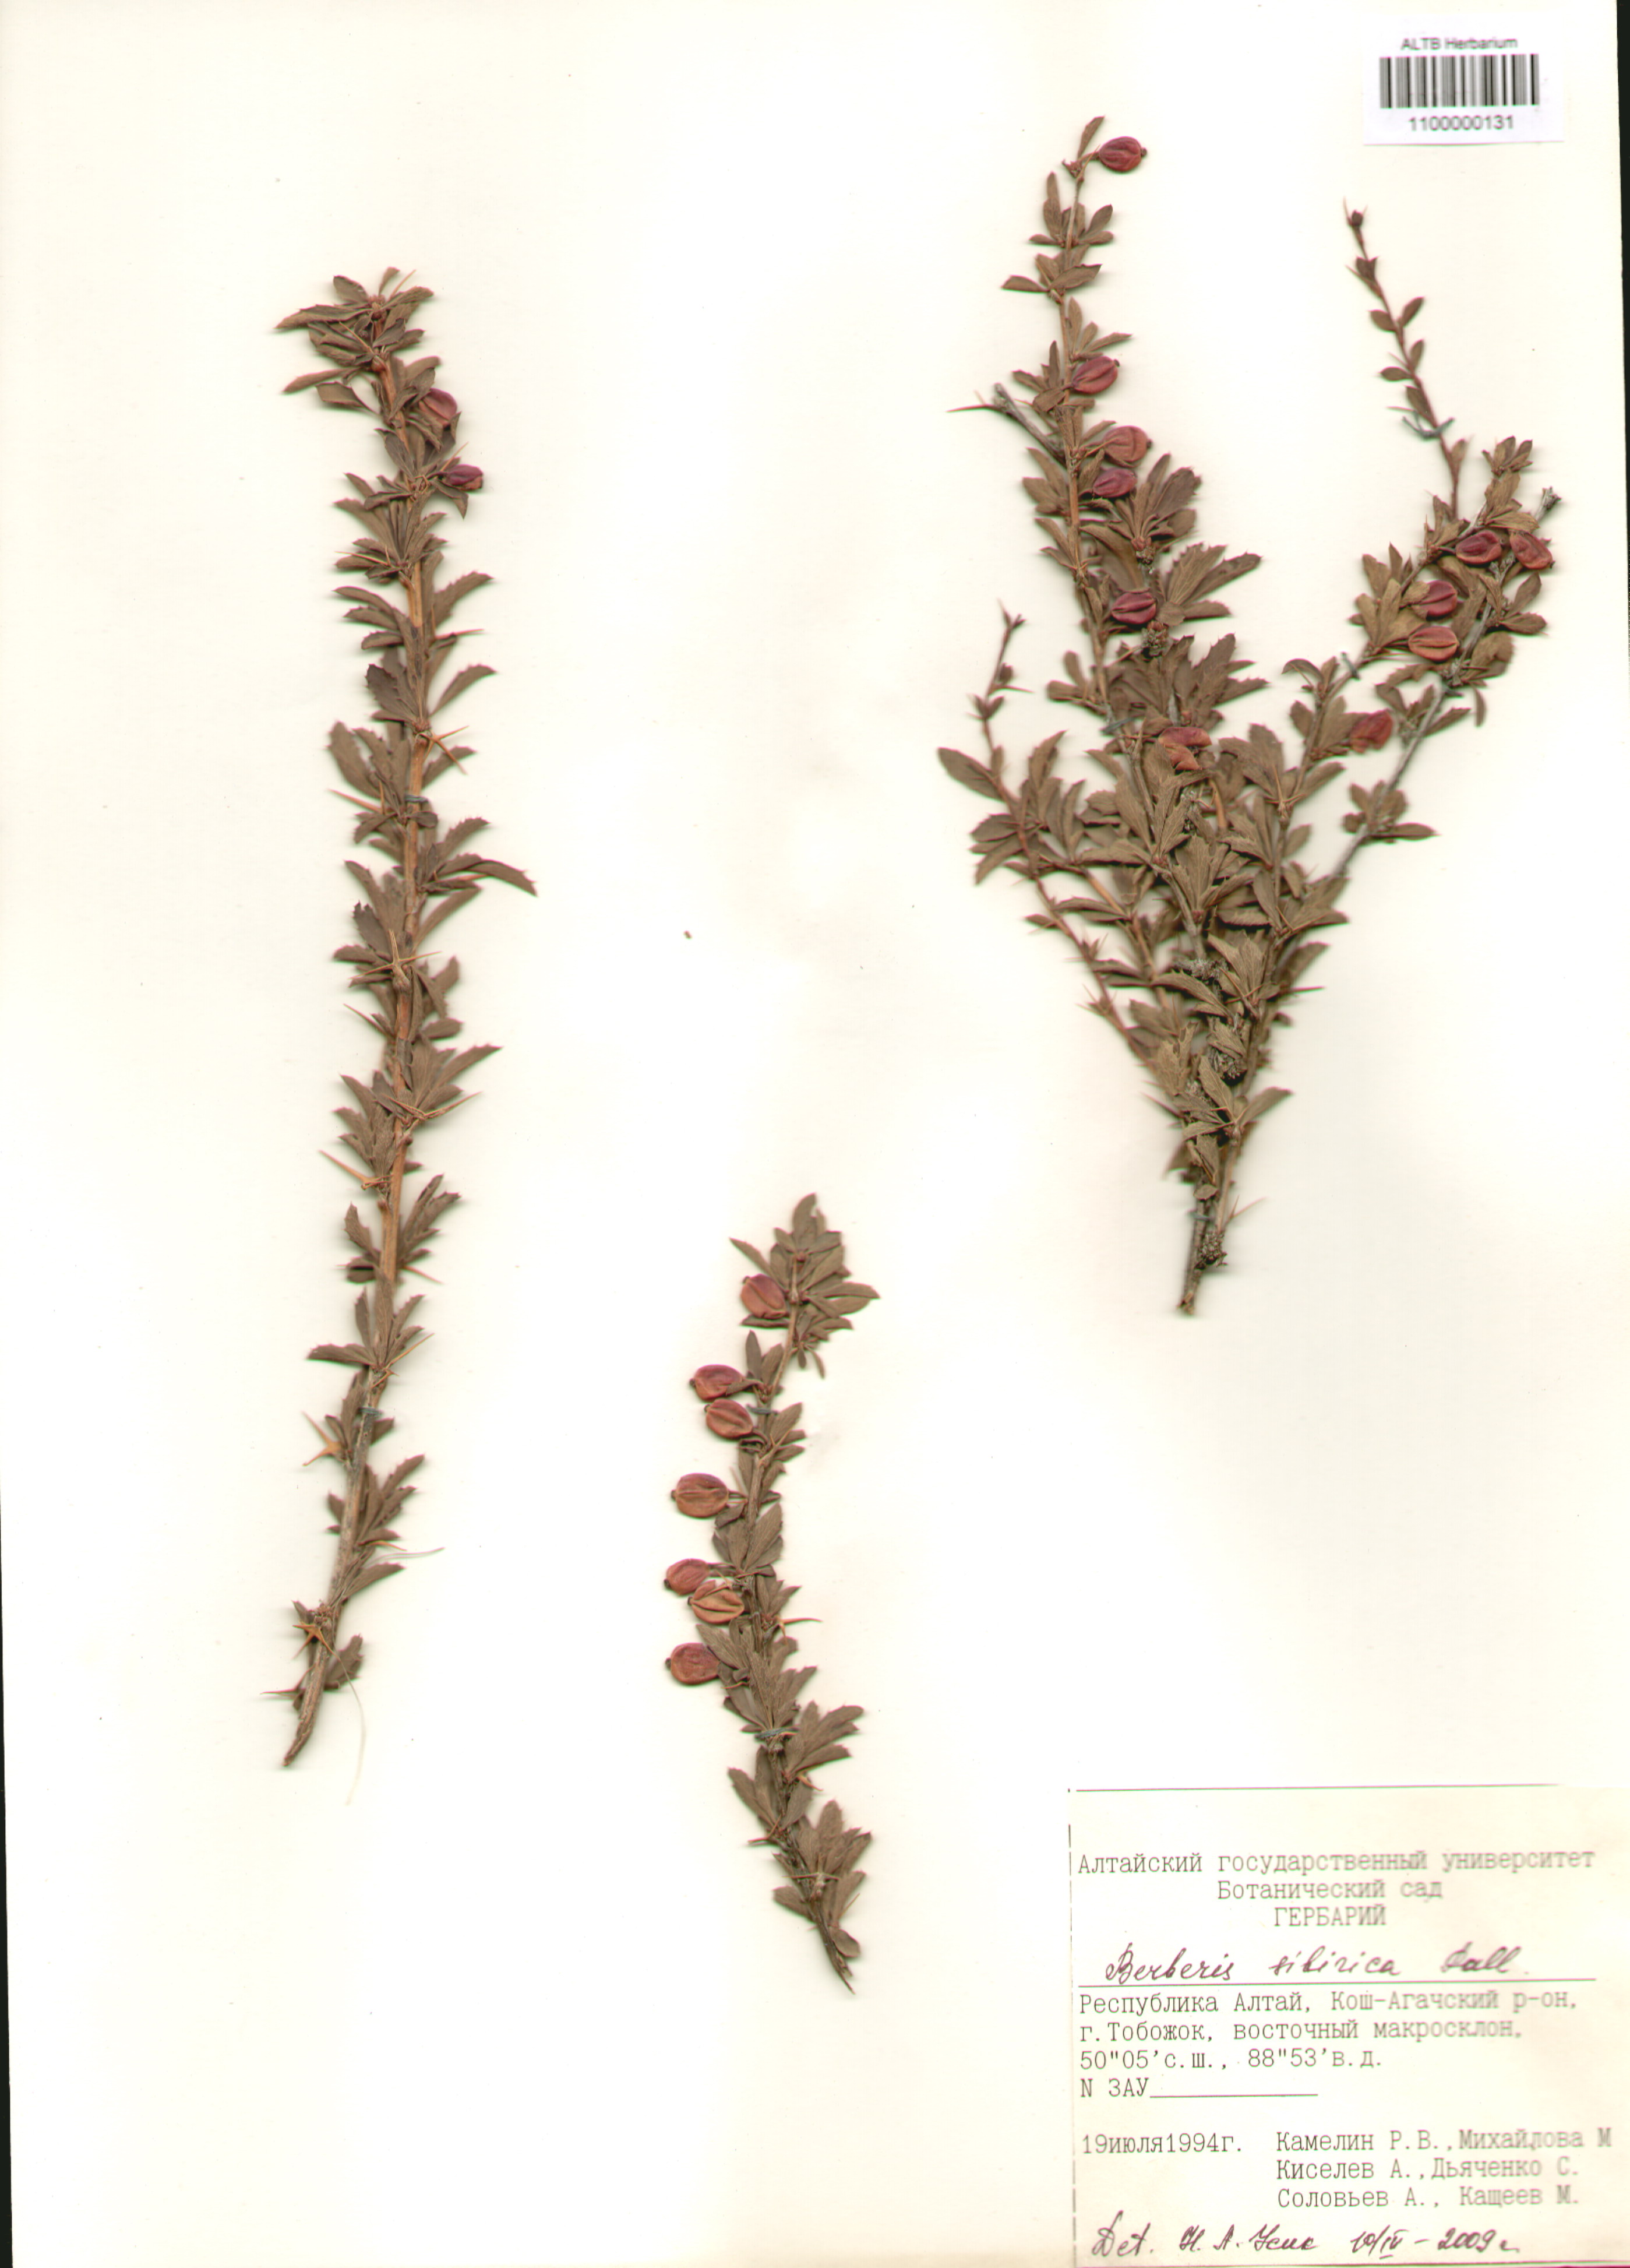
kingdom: Plantae
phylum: Tracheophyta
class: Magnoliopsida
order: Ranunculales
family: Berberidaceae
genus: Berberis
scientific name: Berberis sibirica
